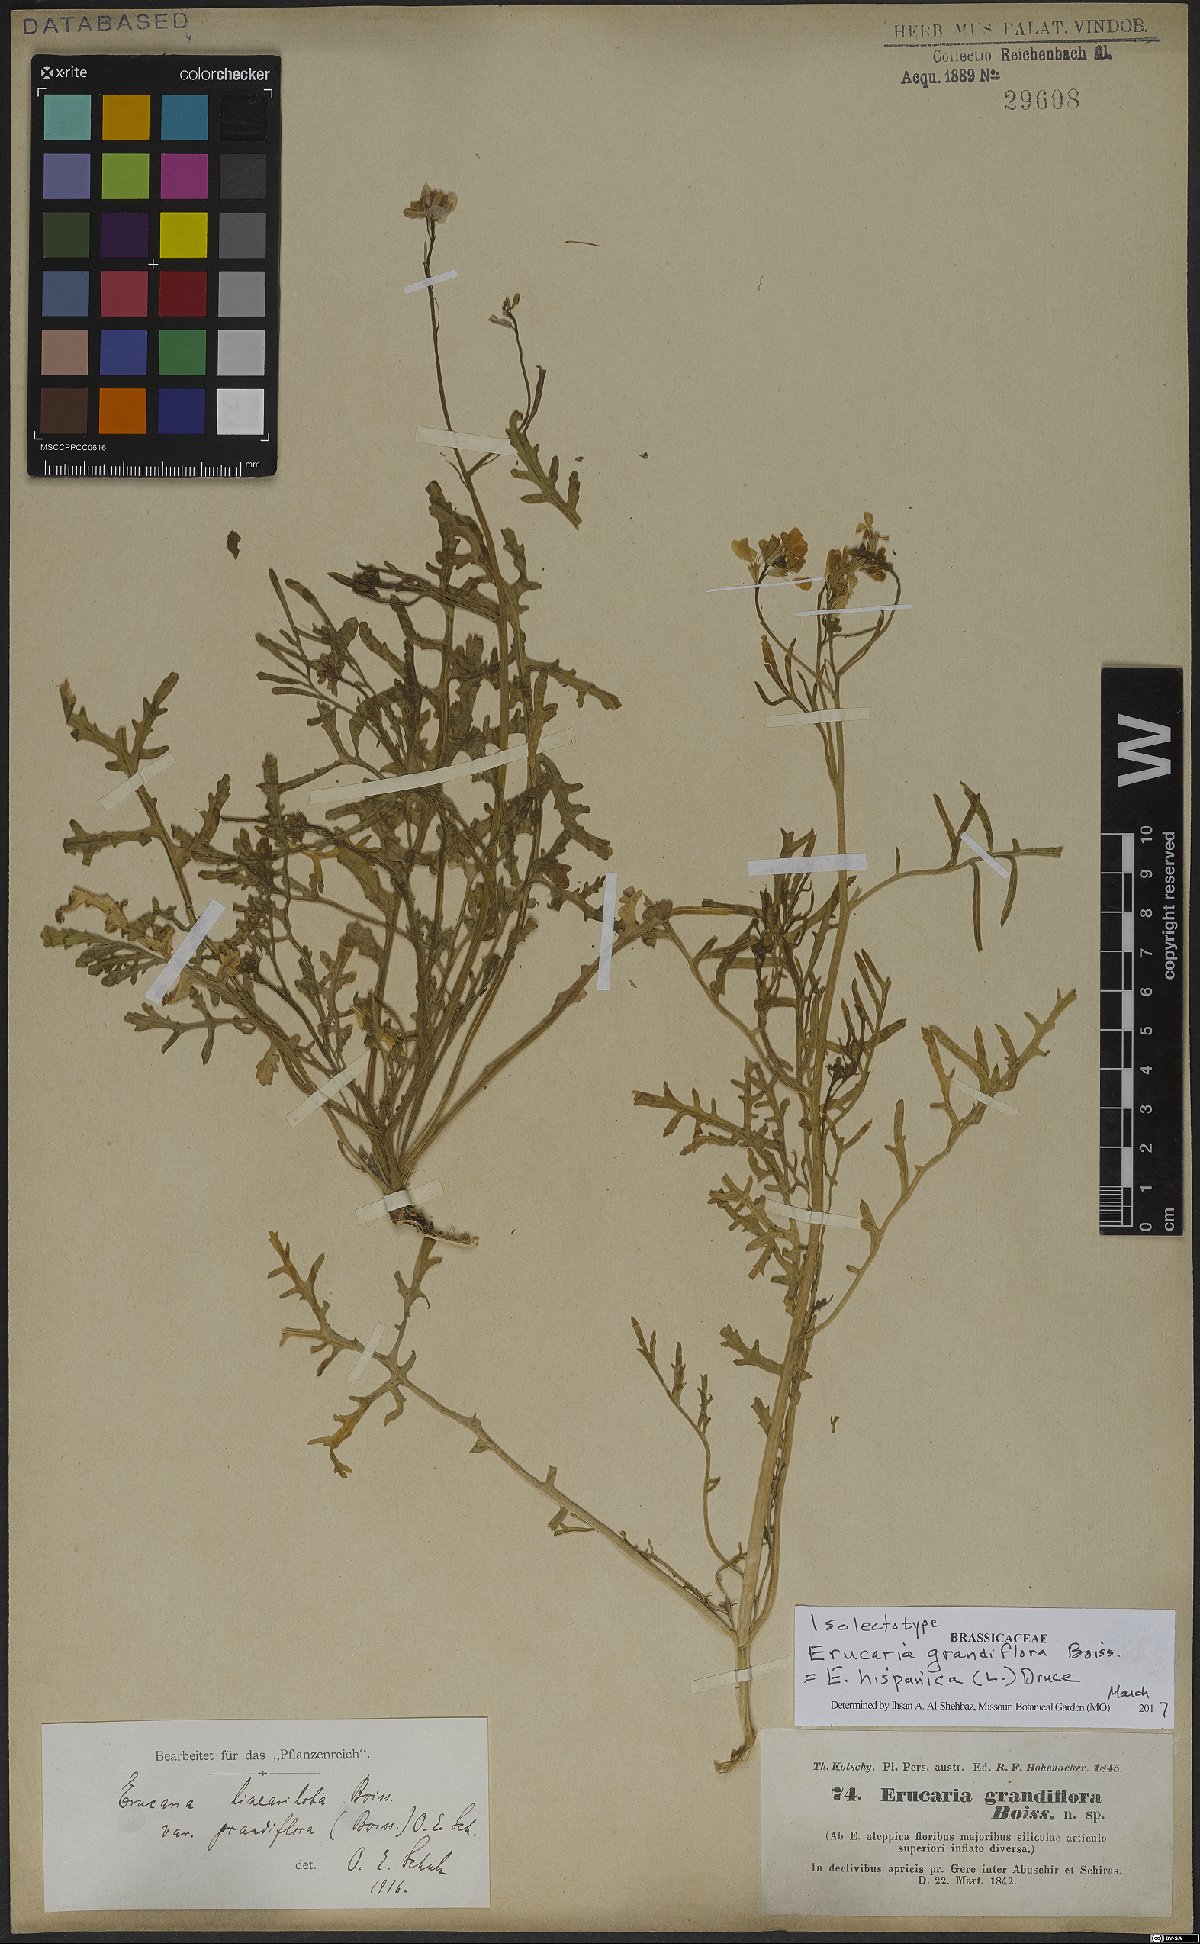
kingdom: Plantae
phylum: Tracheophyta
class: Magnoliopsida
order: Brassicales
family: Brassicaceae
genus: Erucaria
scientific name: Erucaria hispanica
